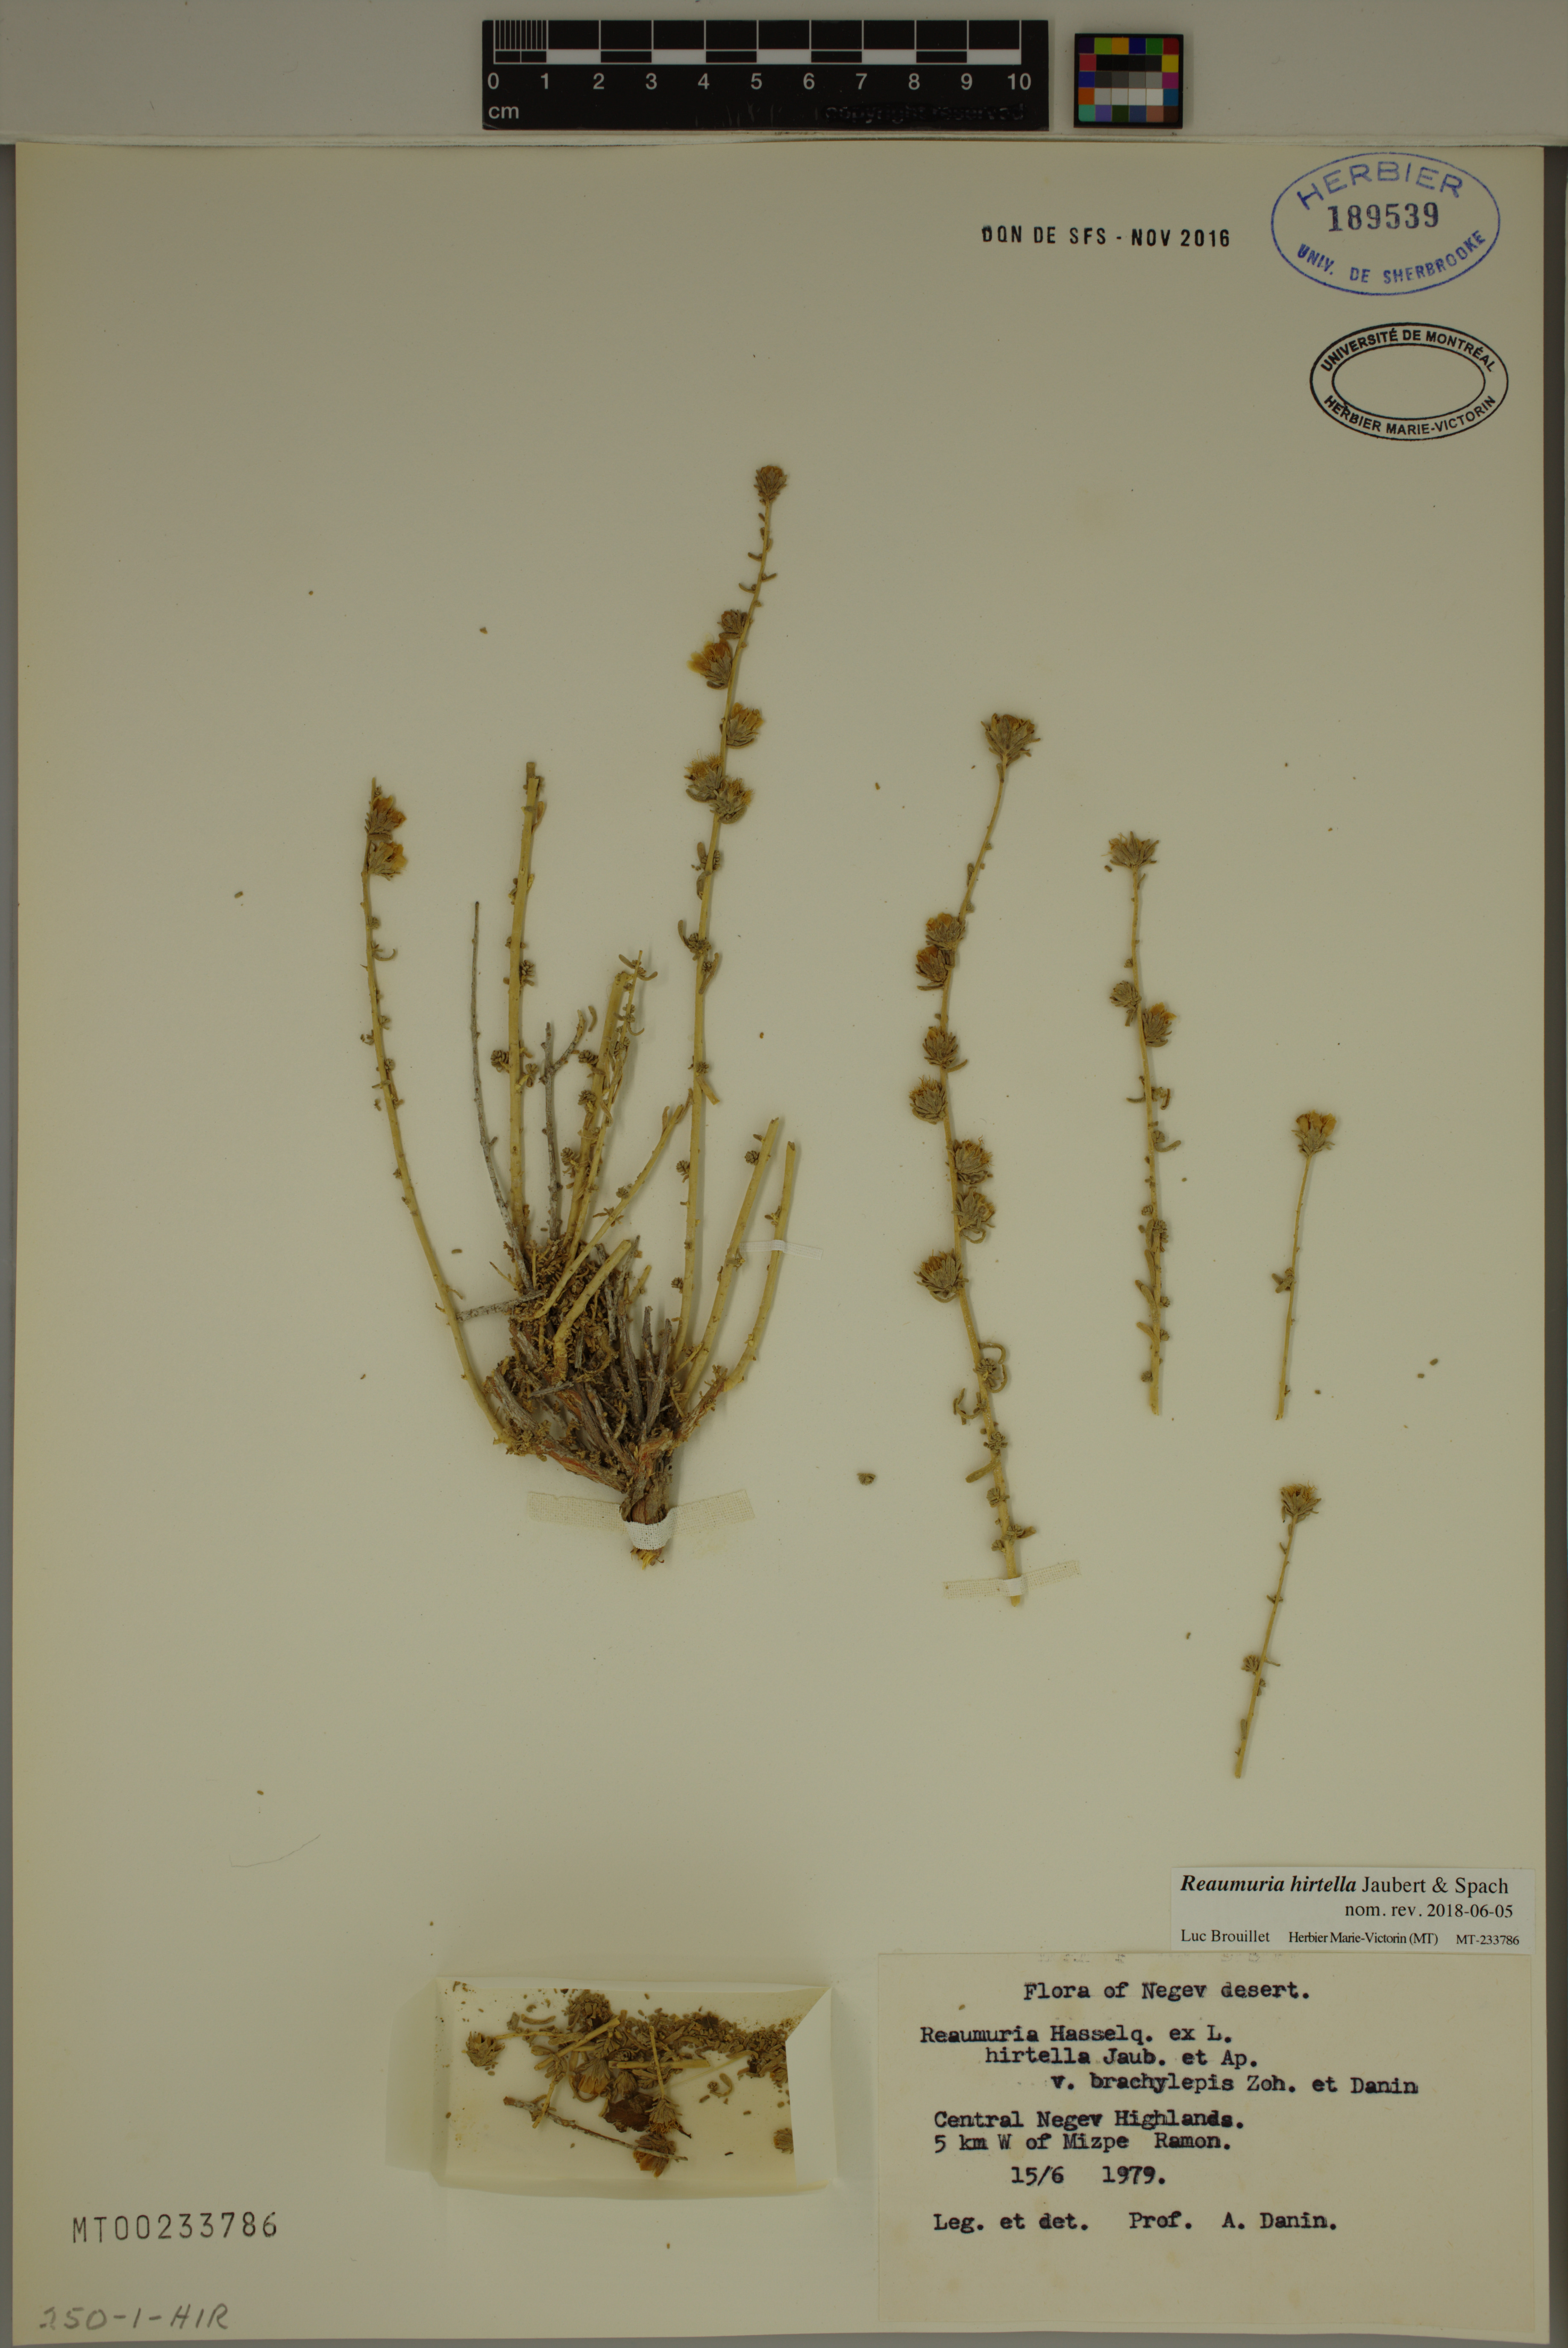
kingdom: Plantae
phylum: Tracheophyta
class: Magnoliopsida
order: Caryophyllales
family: Tamaricaceae
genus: Reaumuria
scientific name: Reaumuria hirtella
